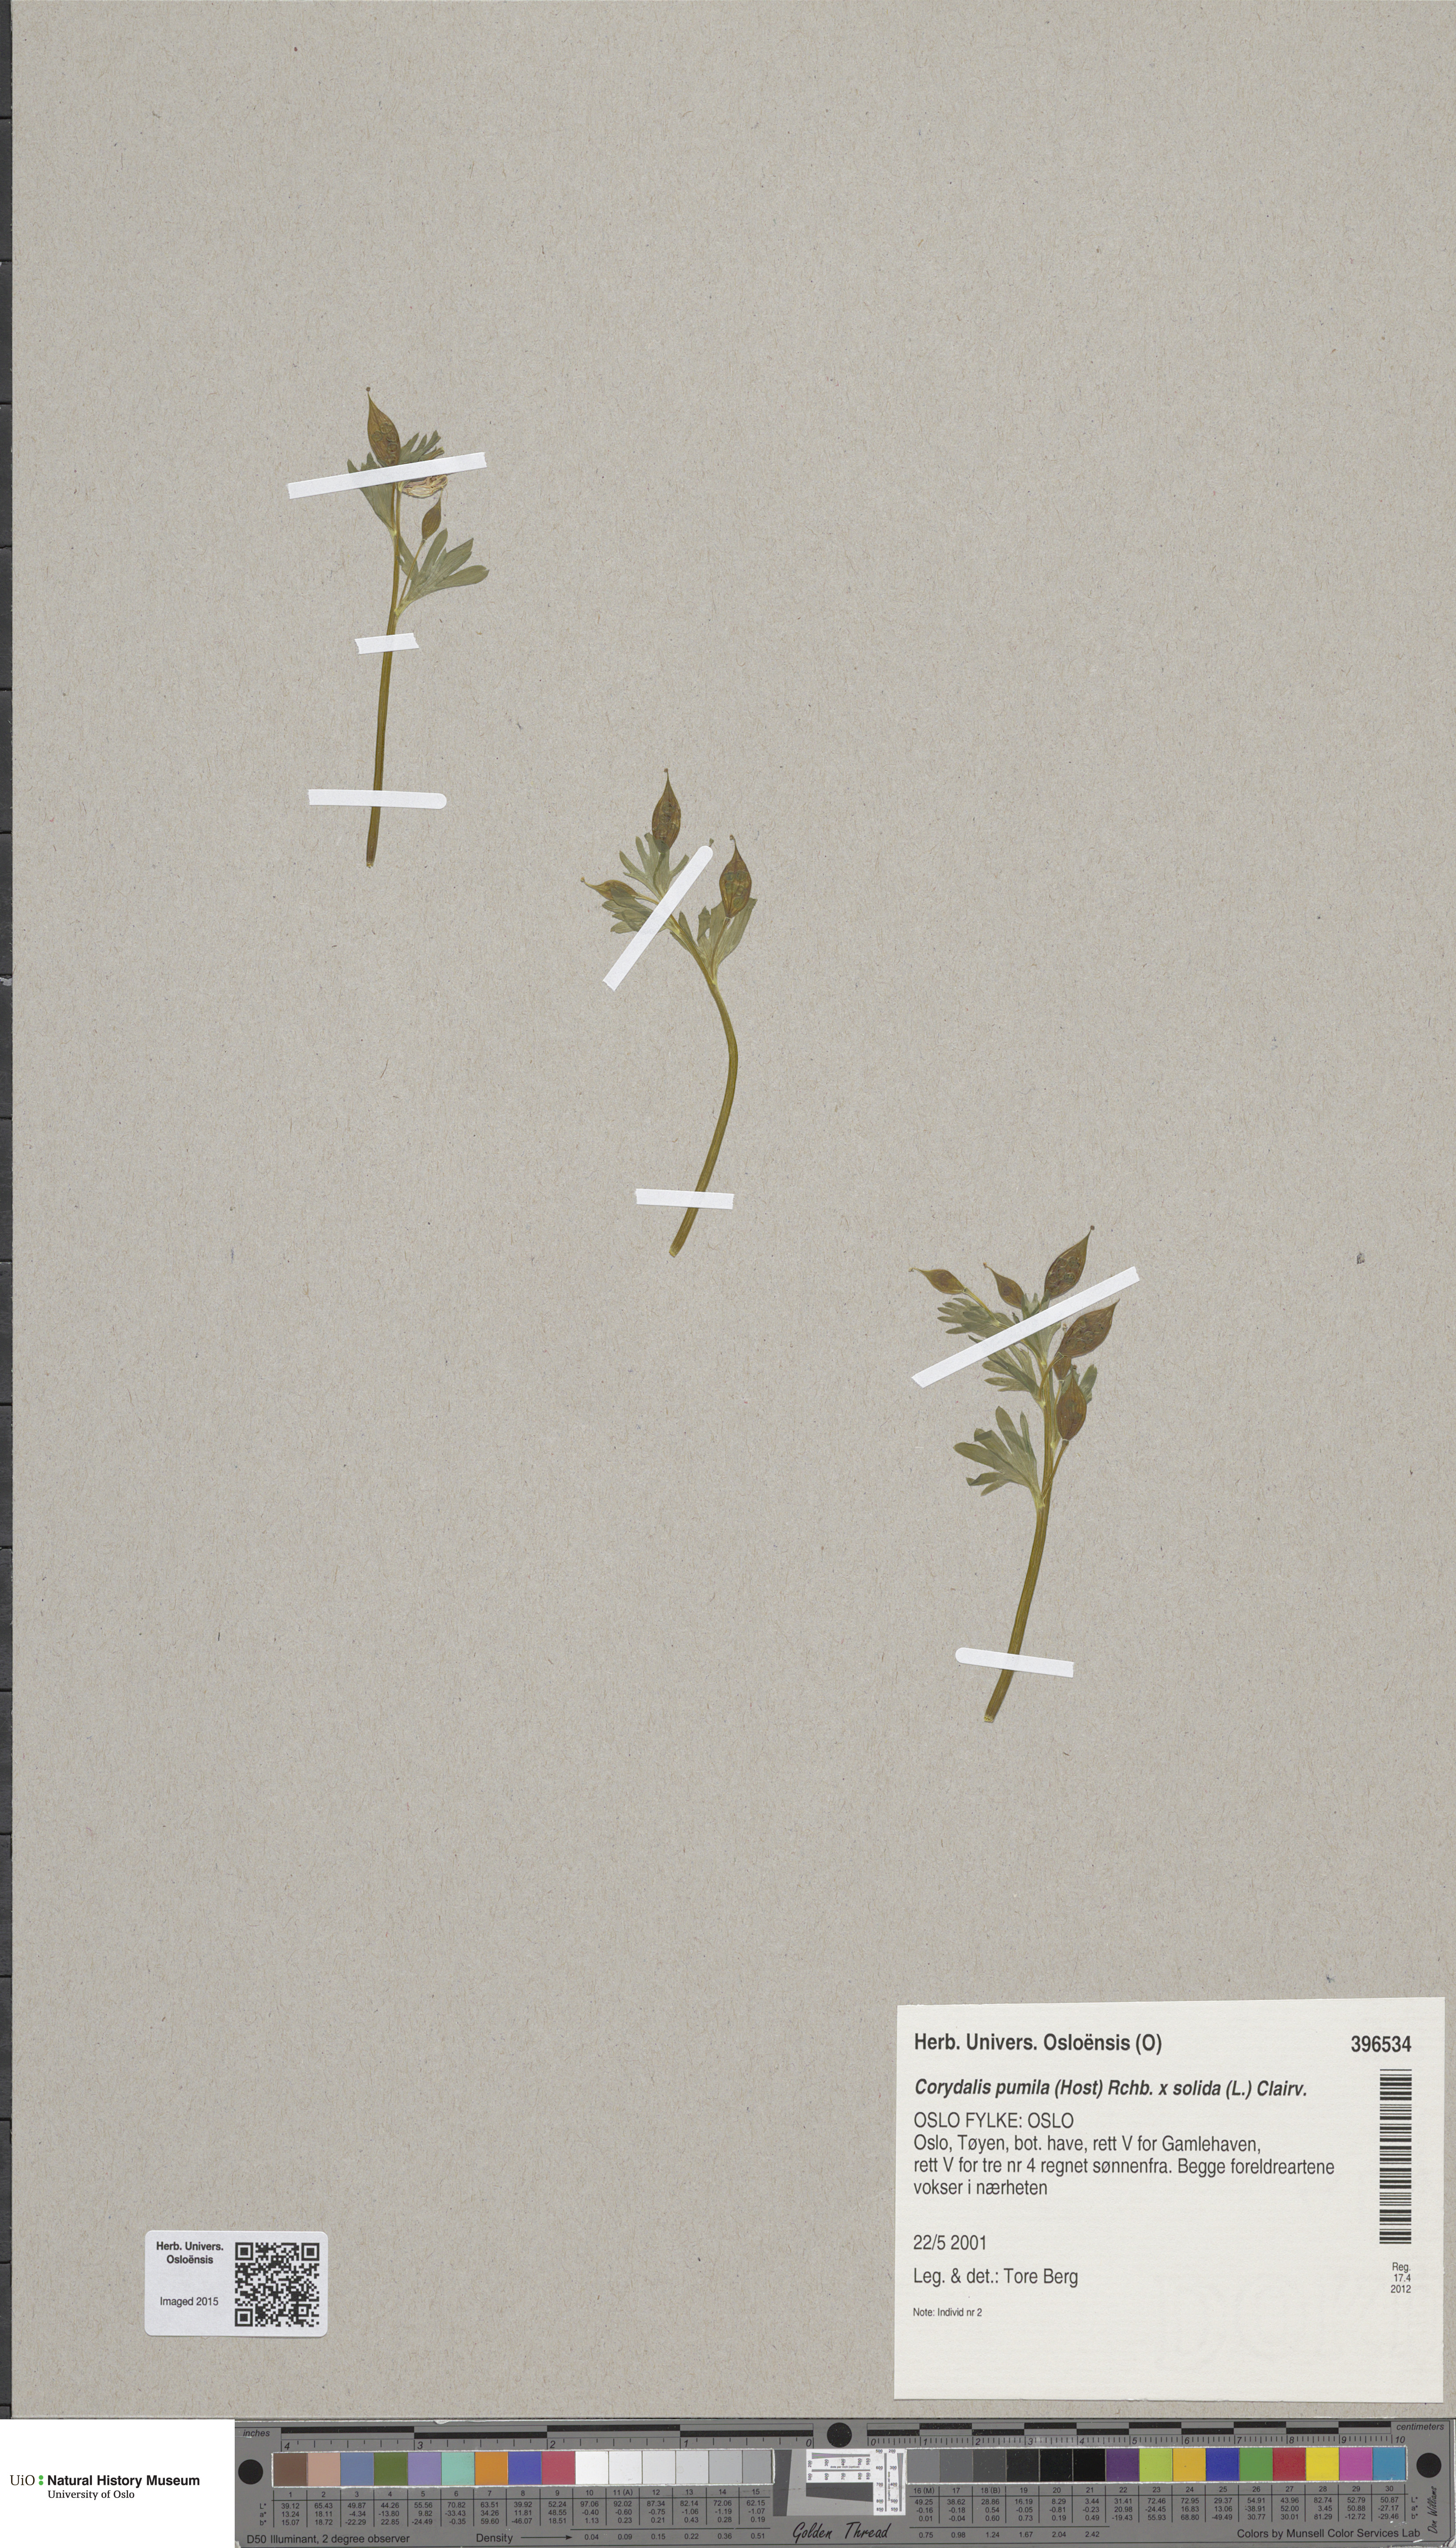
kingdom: Plantae
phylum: Tracheophyta
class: Magnoliopsida
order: Ranunculales
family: Papaveraceae
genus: Corydalis
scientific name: Corydalis
